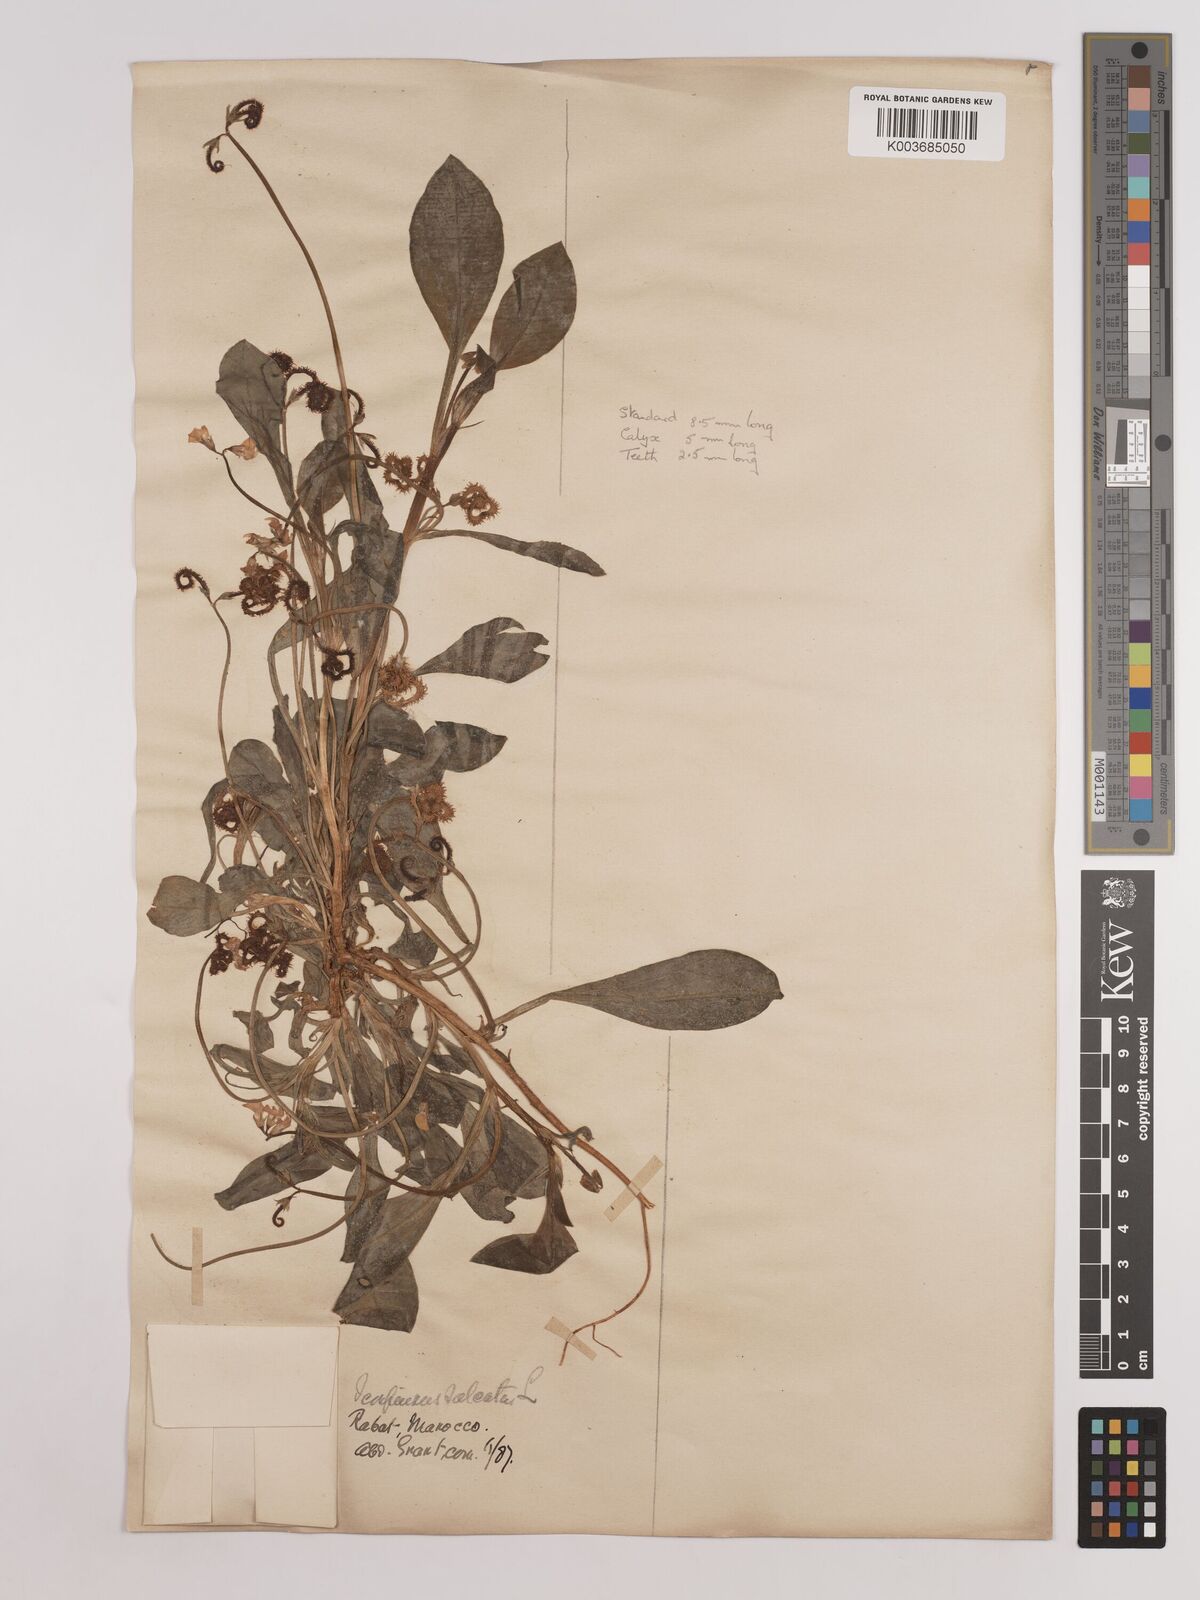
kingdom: Plantae
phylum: Tracheophyta
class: Magnoliopsida
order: Fabales
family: Fabaceae
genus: Scorpiurus
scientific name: Scorpiurus muricatus
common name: Caterpillar-plant
